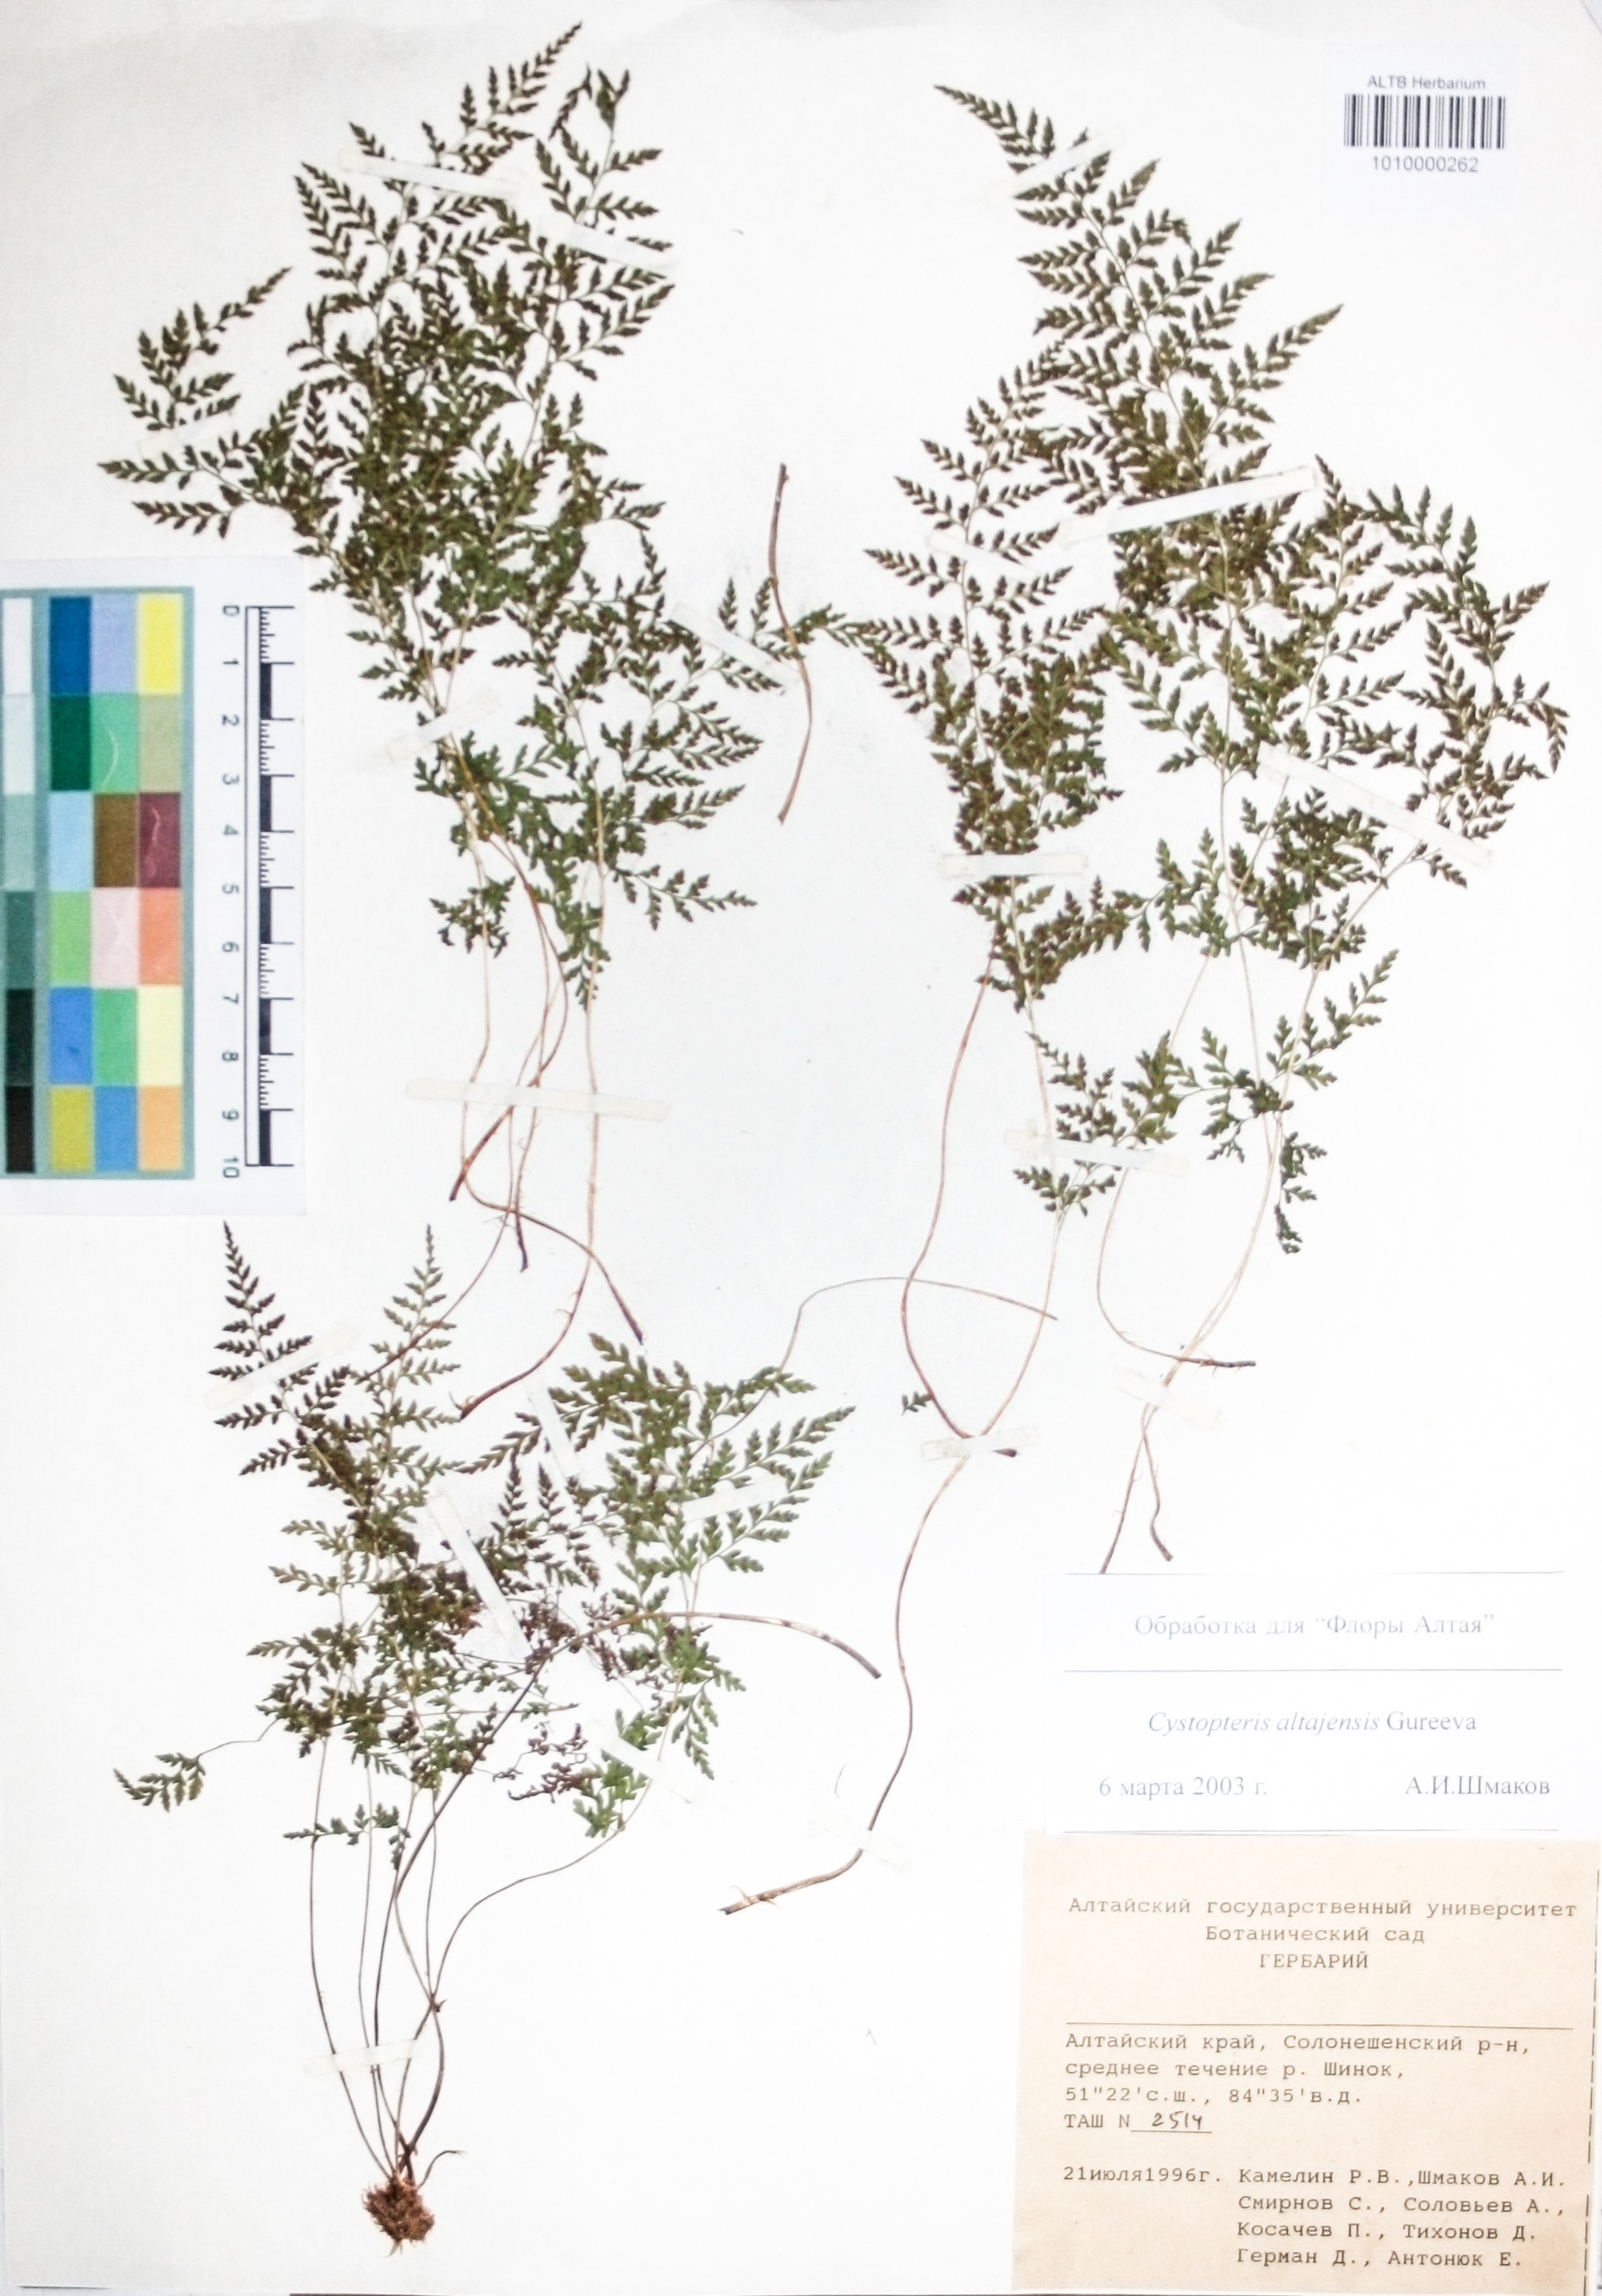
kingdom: Plantae
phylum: Tracheophyta
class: Polypodiopsida
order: Polypodiales
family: Cystopteridaceae
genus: Cystopteris
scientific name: Cystopteris diaphana
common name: Greenish bladder-fern
